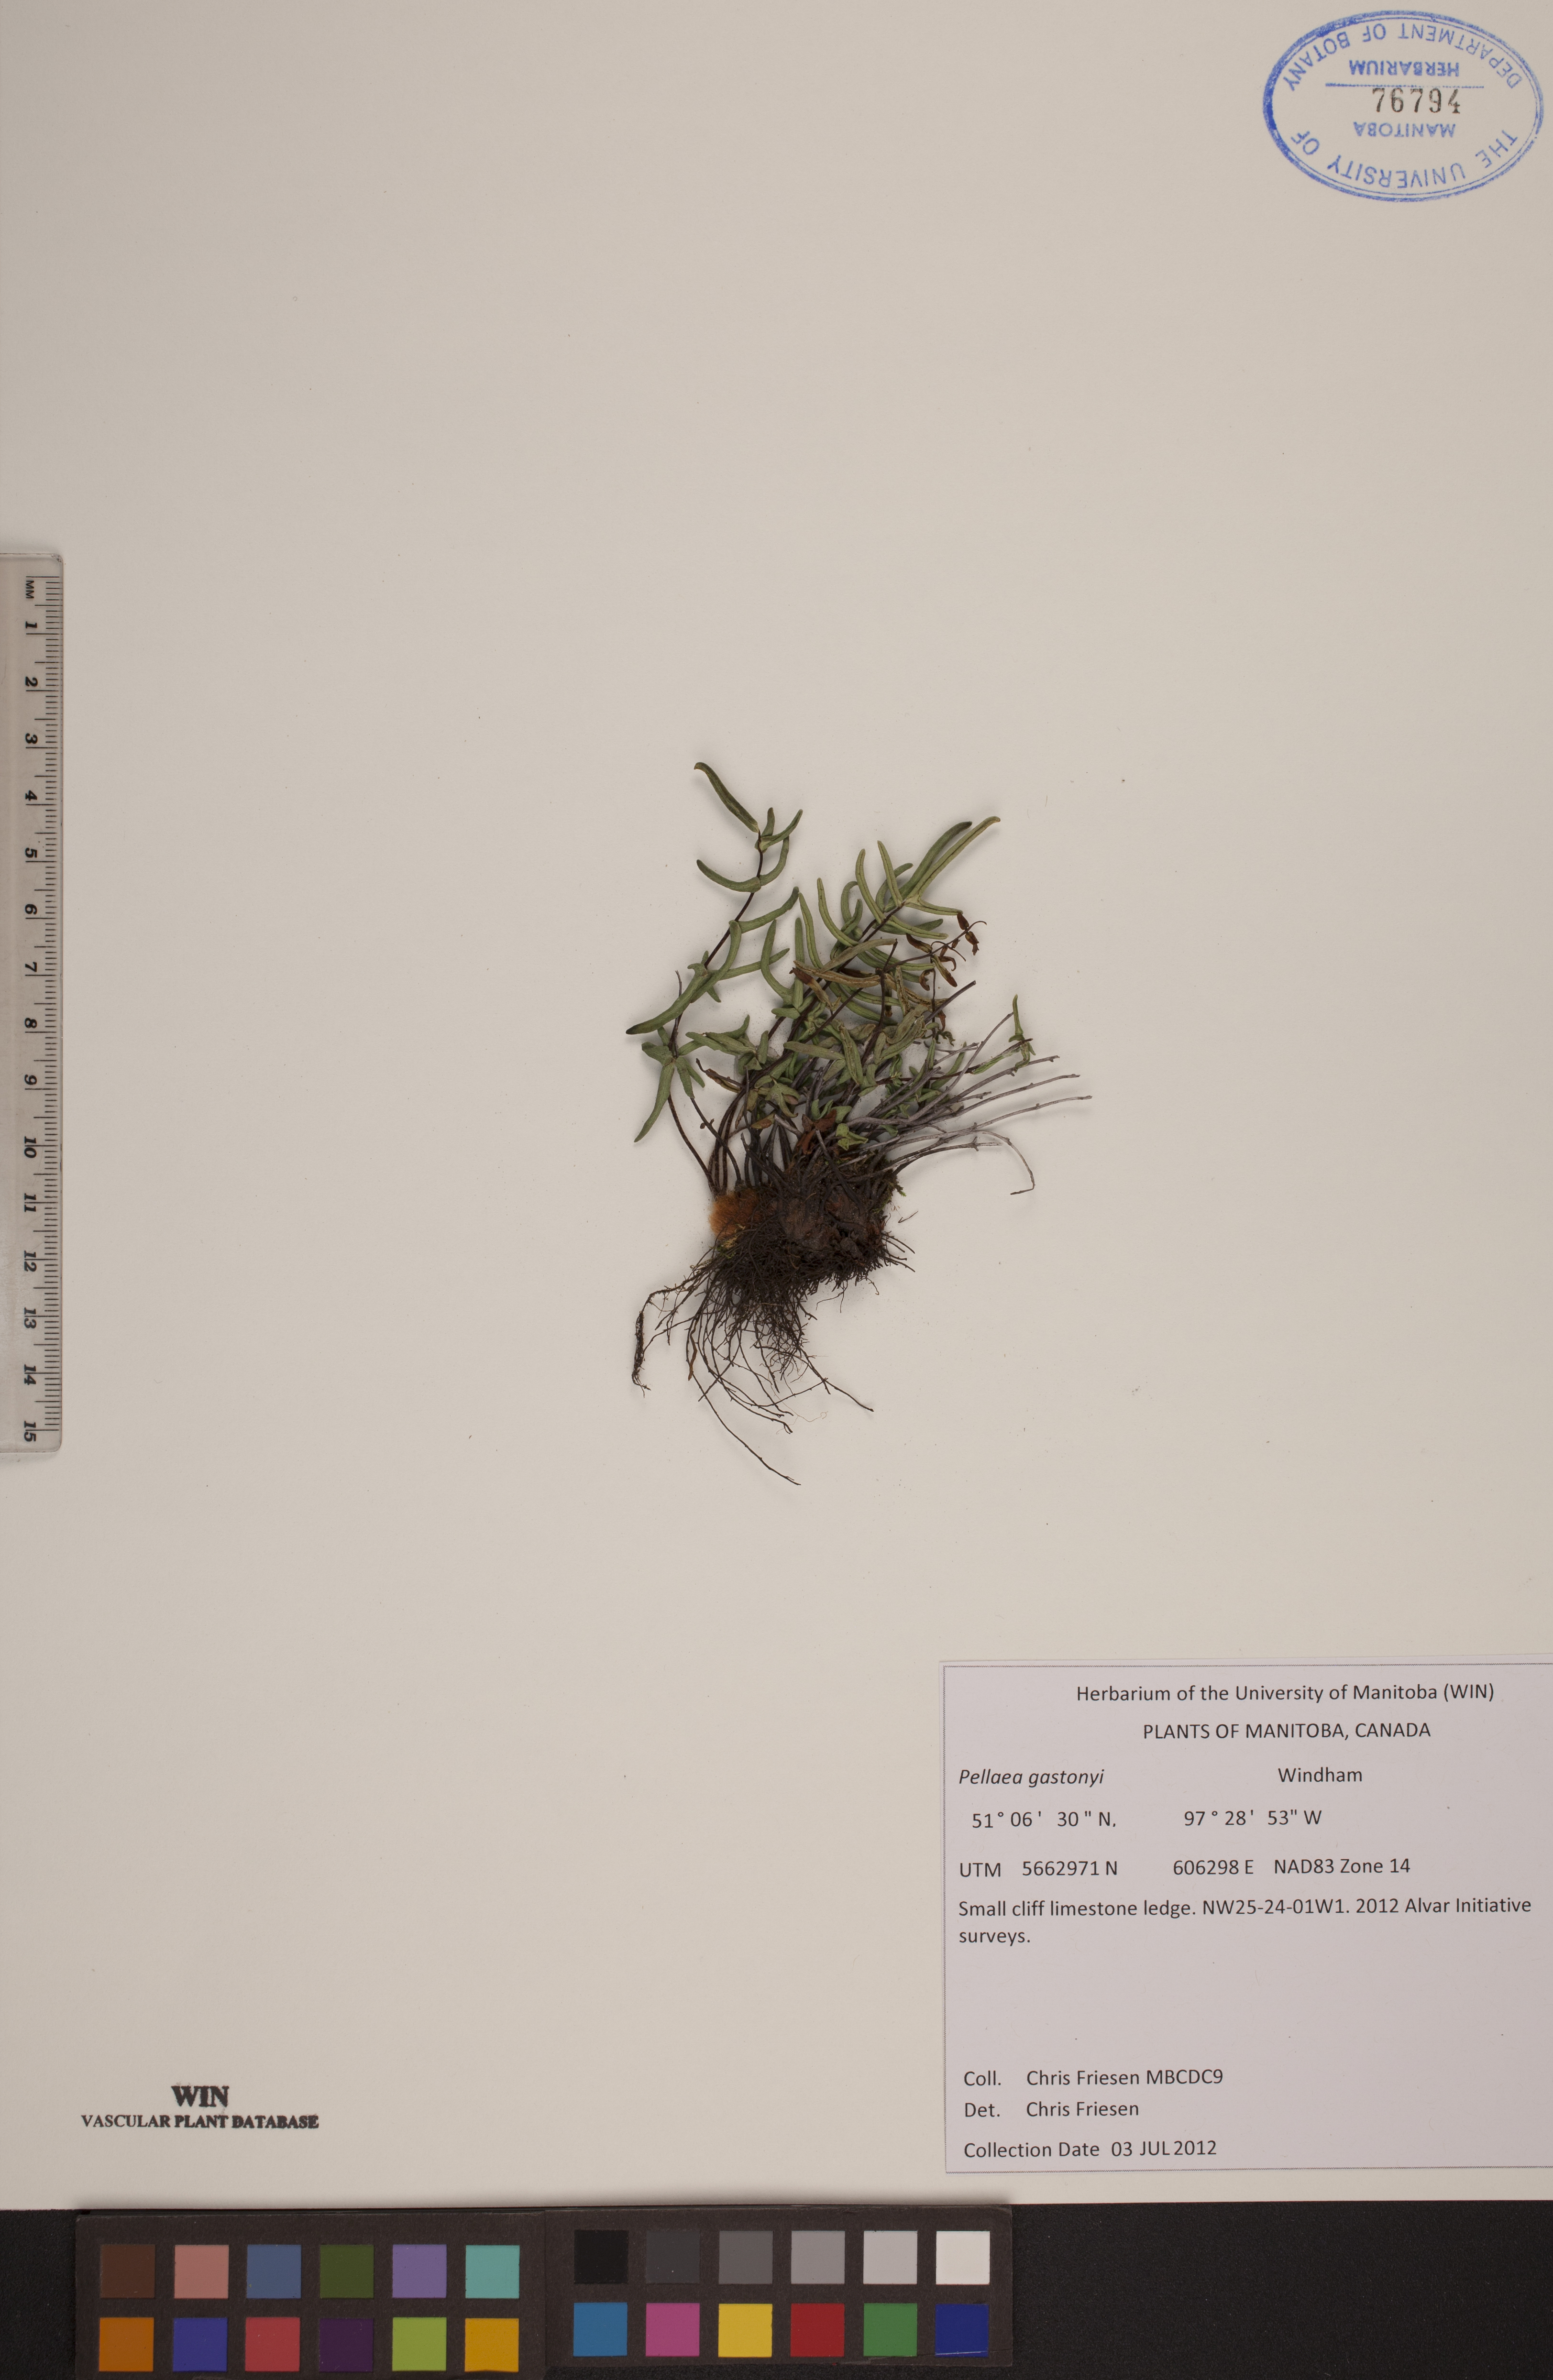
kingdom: Plantae
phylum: Tracheophyta
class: Polypodiopsida
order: Polypodiales
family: Pteridaceae
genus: Pellaea
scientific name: Pellaea gastonyi
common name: Gastony's cliffbrake
